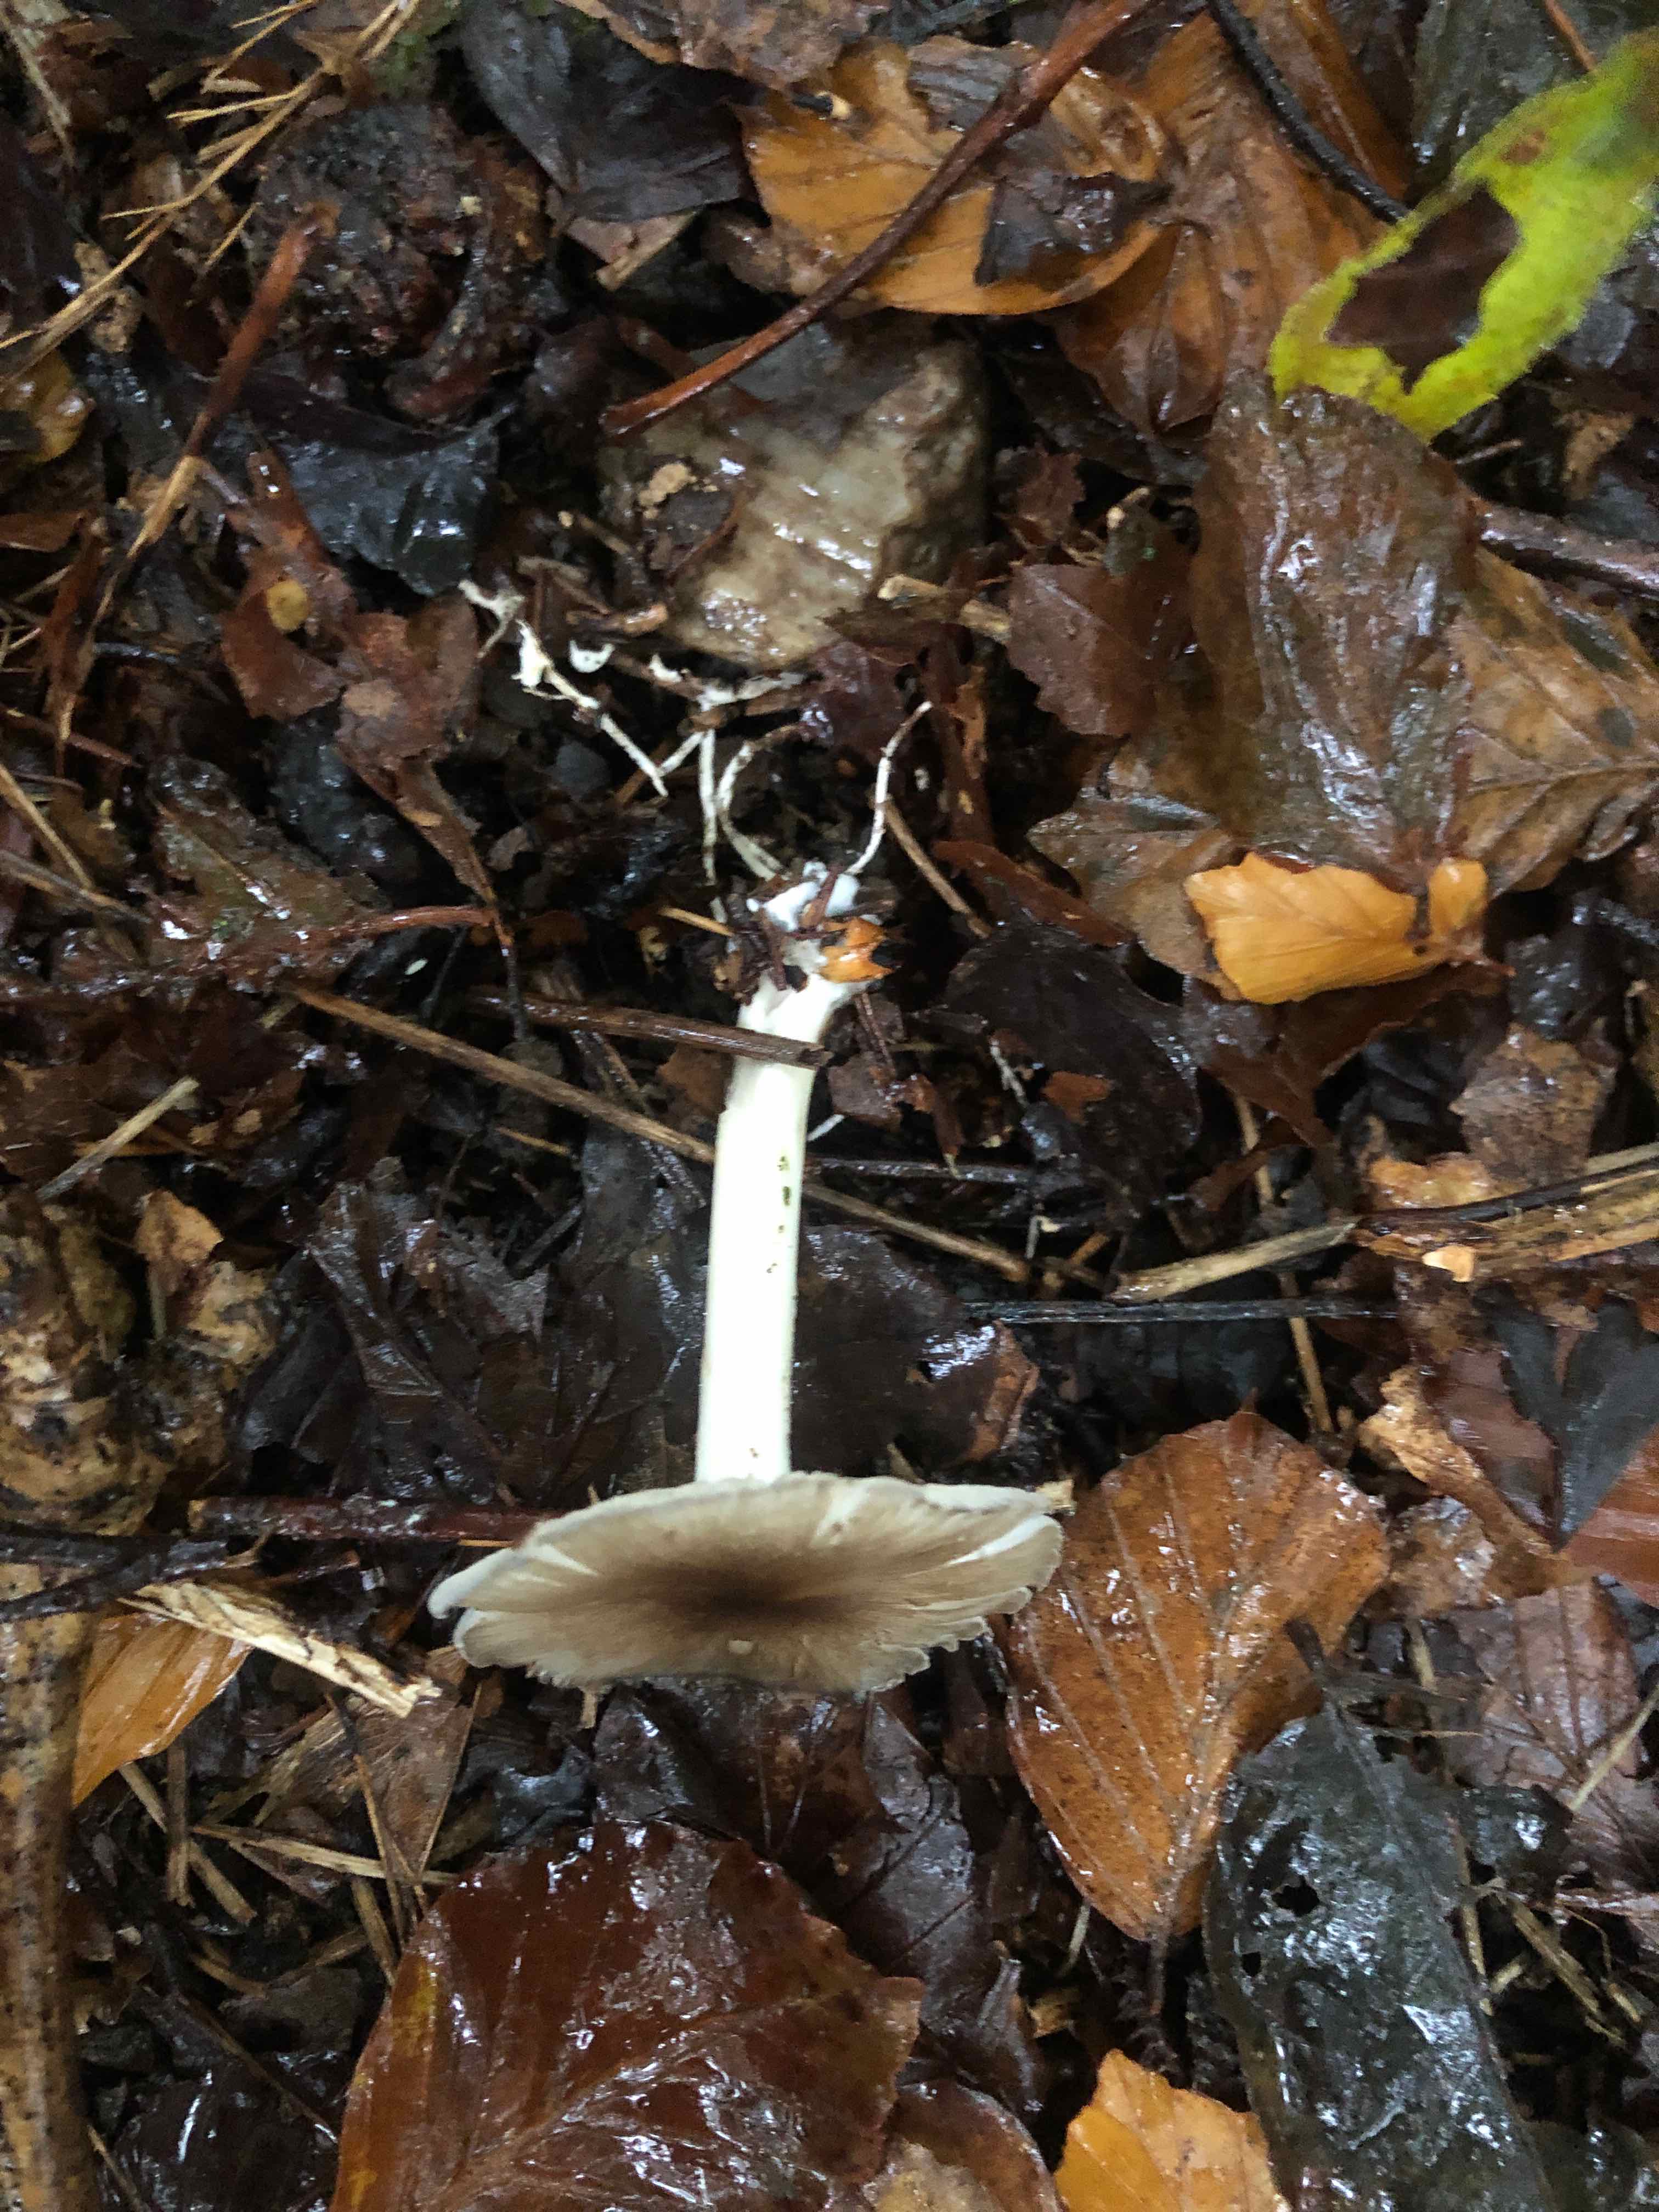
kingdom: Fungi
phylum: Basidiomycota
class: Agaricomycetes
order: Agaricales
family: Tricholomataceae
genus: Megacollybia
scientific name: Megacollybia platyphylla
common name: bredbladet væbnerhat
